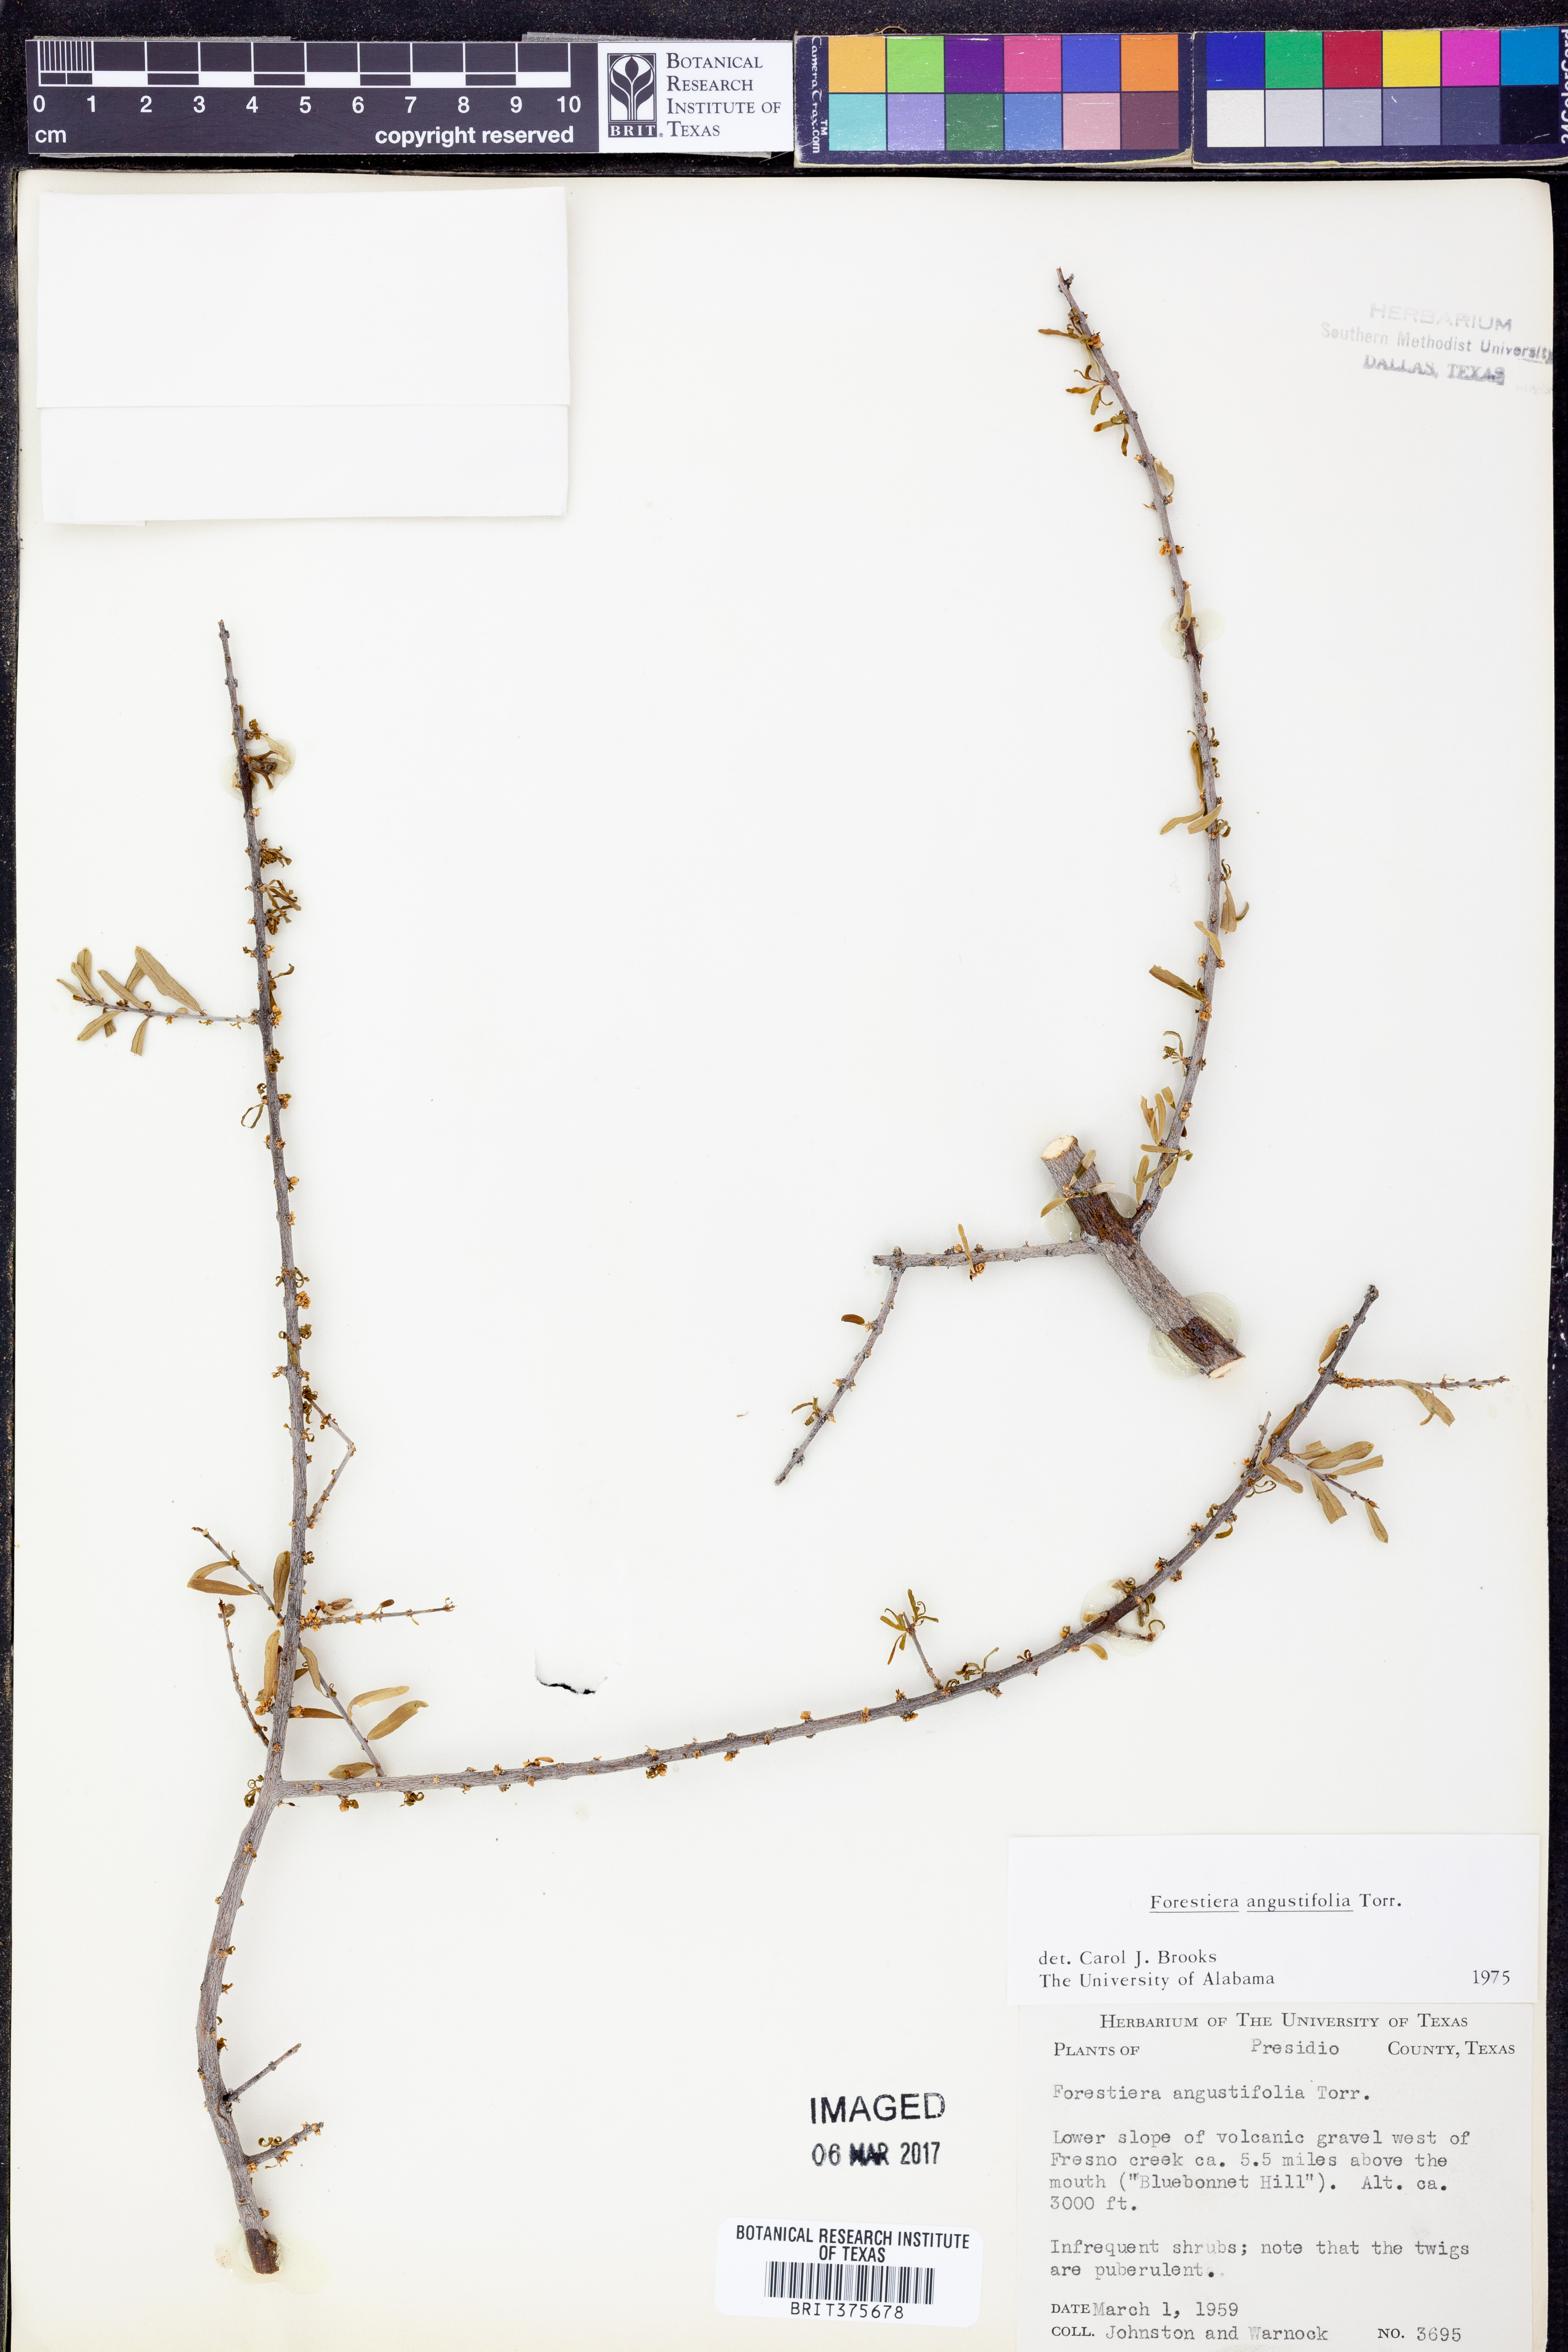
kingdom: Plantae
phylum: Tracheophyta
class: Magnoliopsida
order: Lamiales
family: Oleaceae
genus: Forestiera
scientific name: Forestiera angustifolia
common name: Elbowbush
